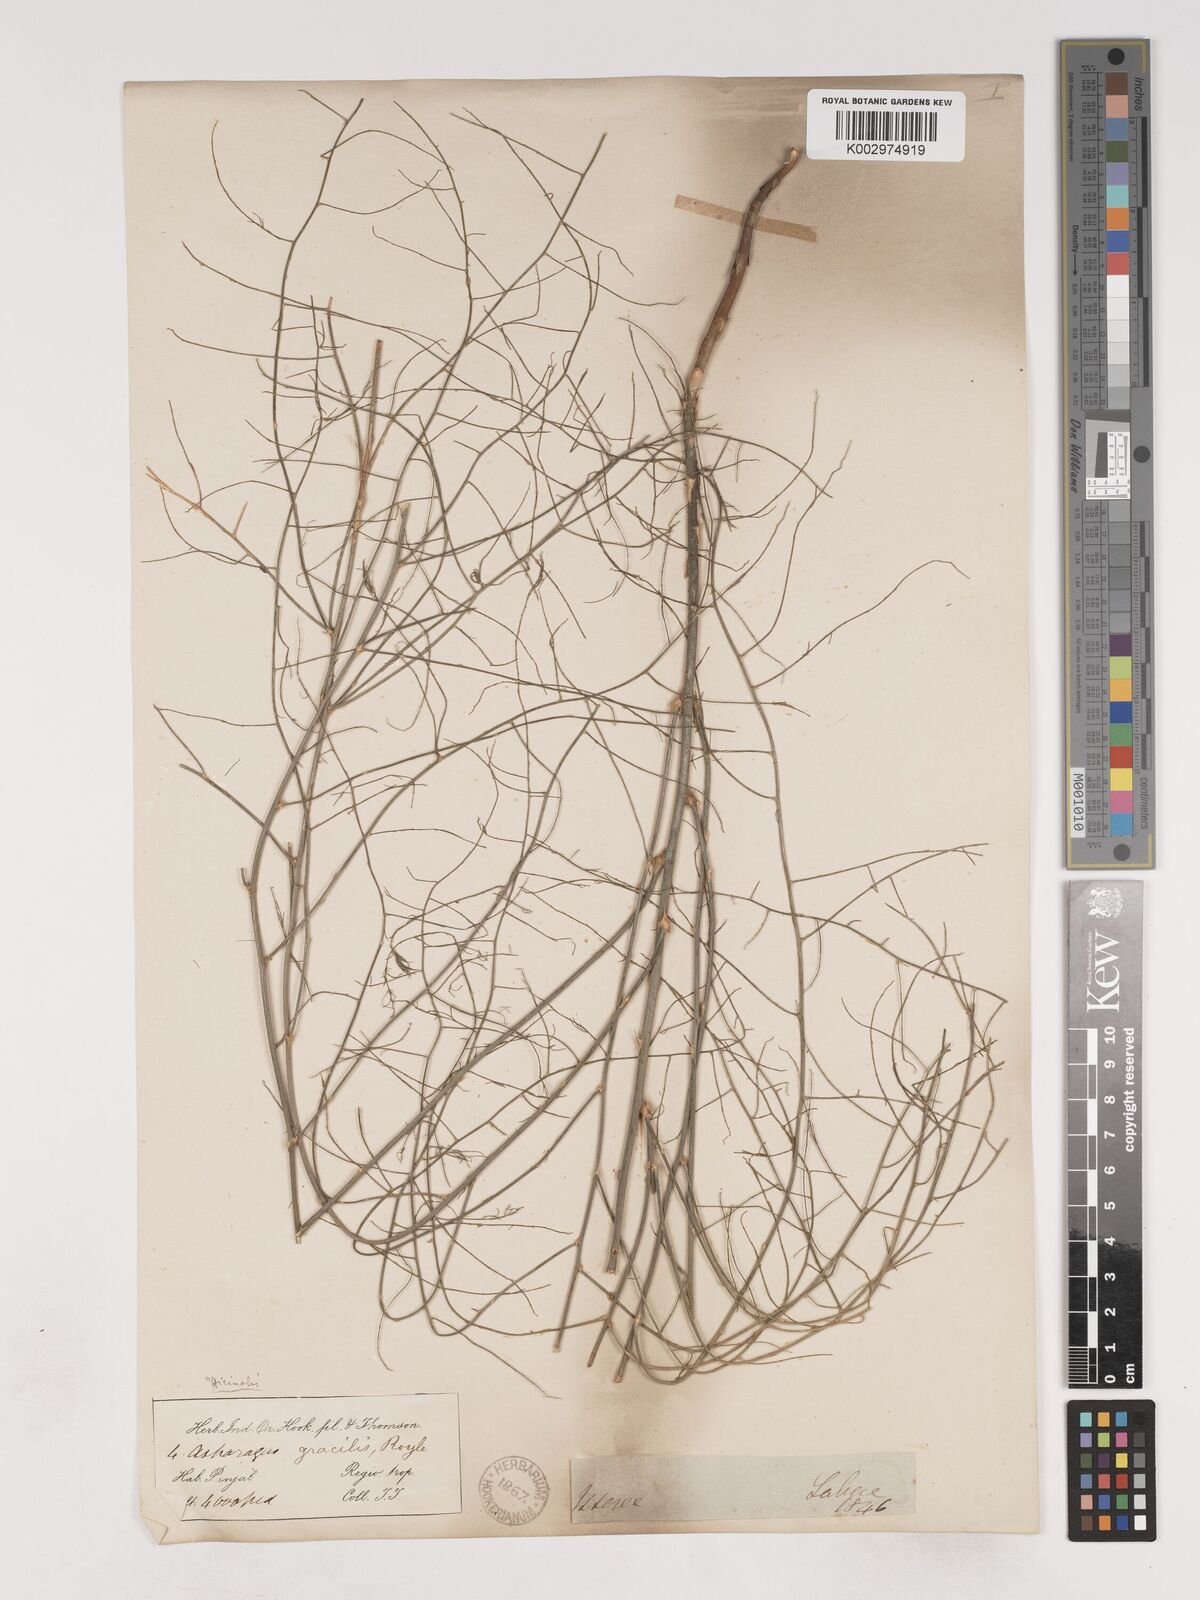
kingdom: Plantae
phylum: Tracheophyta
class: Liliopsida
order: Asparagales
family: Asparagaceae
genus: Asparagus
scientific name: Asparagus officinalis
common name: Garden asparagus
